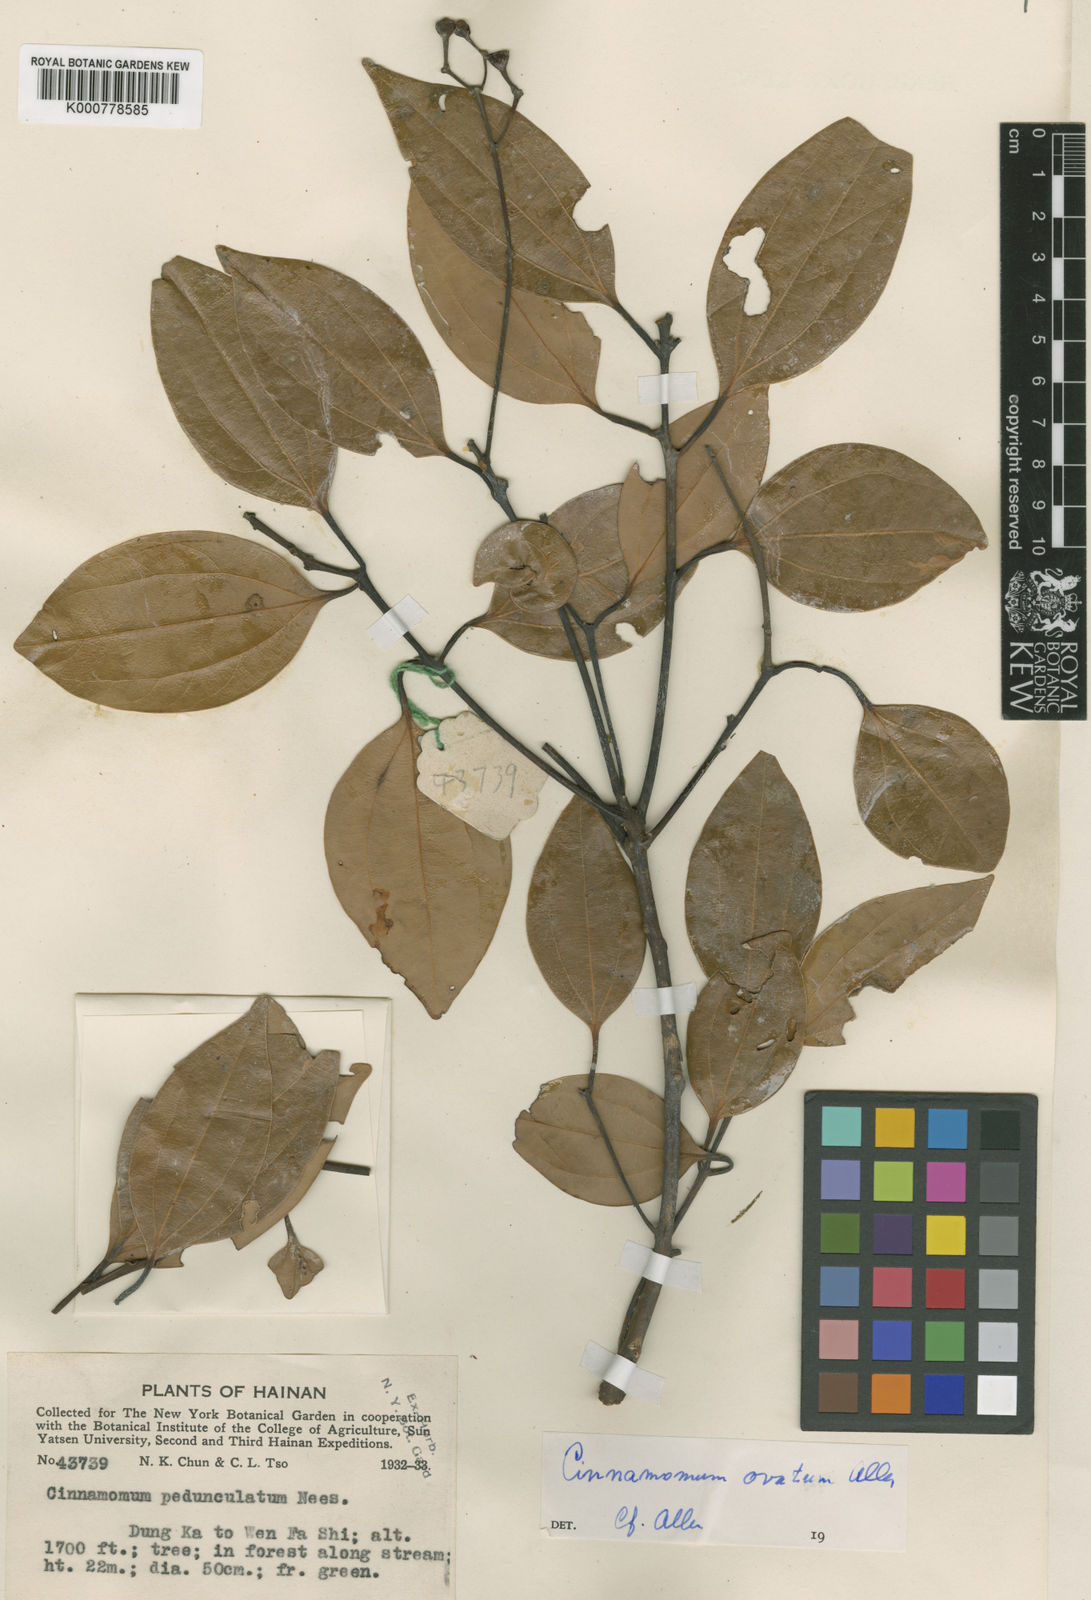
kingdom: Plantae
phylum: Tracheophyta
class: Magnoliopsida
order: Laurales
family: Lauraceae
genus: Cinnamomum
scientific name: Cinnamomum rigidissimum
